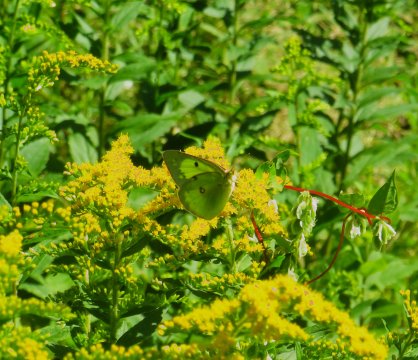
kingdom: Animalia
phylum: Arthropoda
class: Insecta
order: Lepidoptera
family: Pieridae
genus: Colias
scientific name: Colias philodice
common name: Clouded Sulphur
